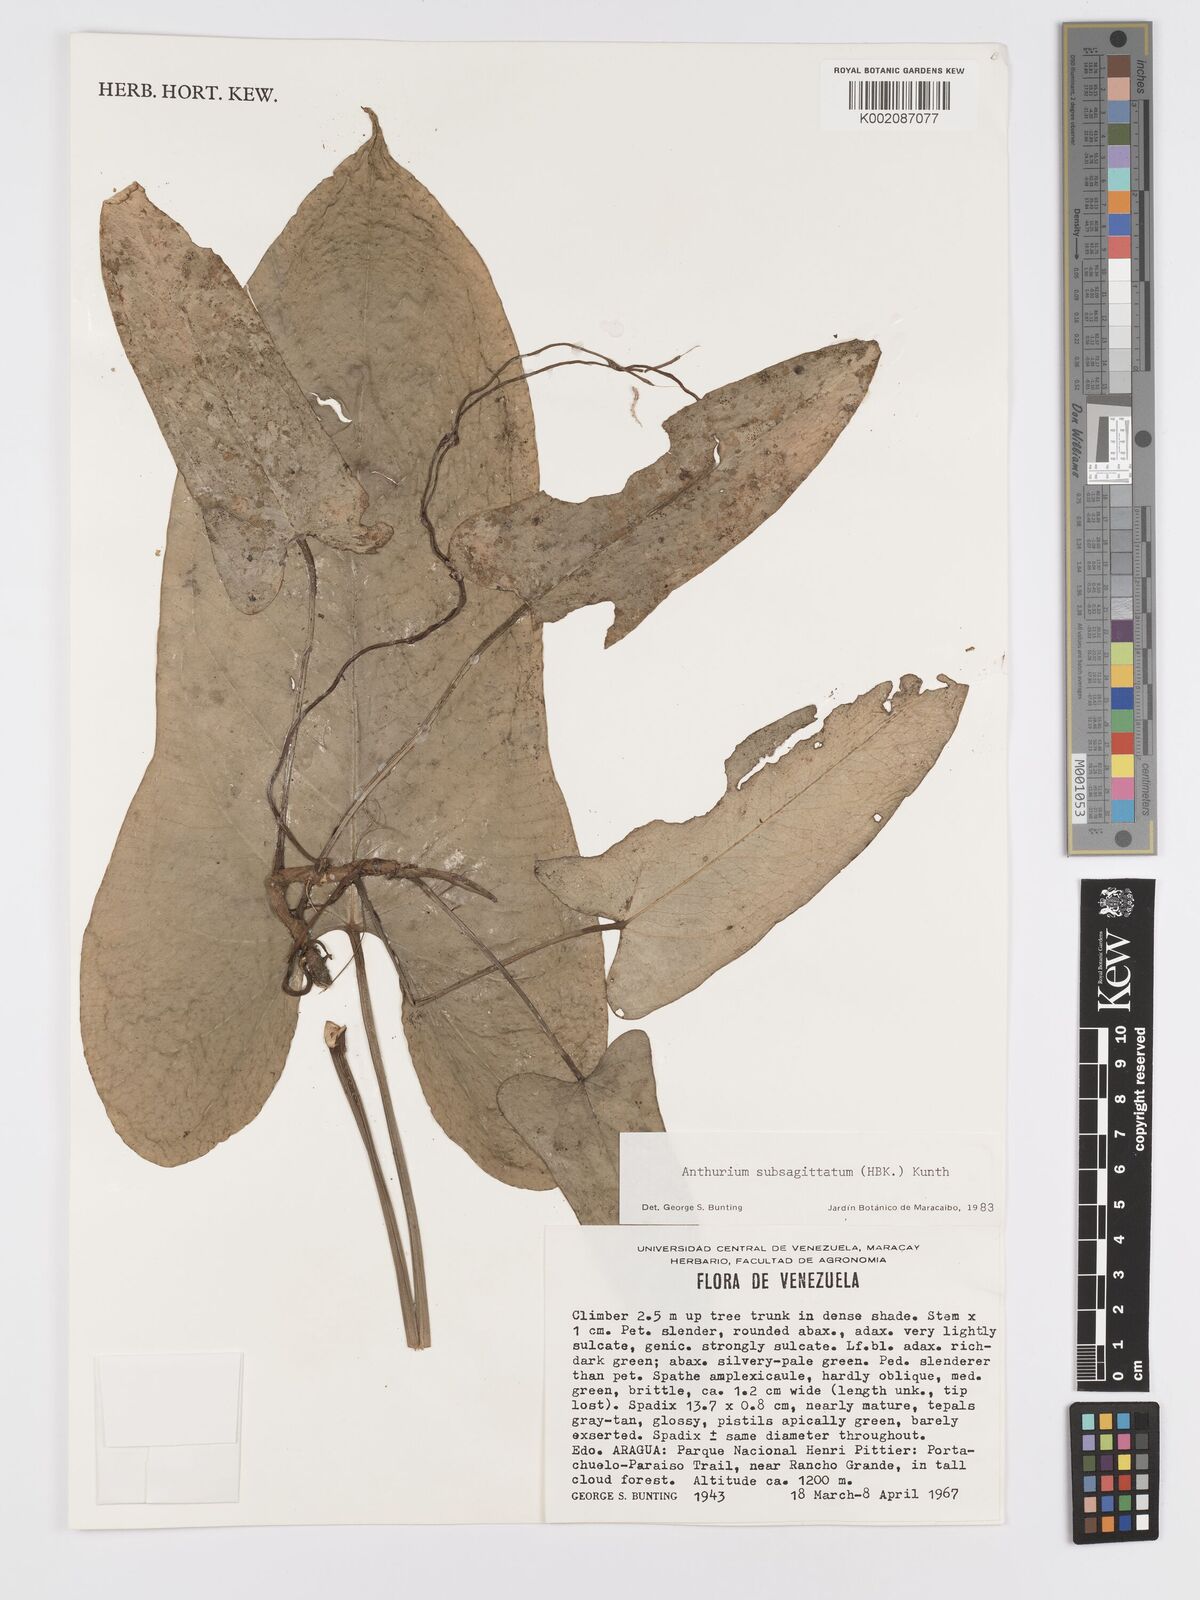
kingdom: Plantae
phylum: Tracheophyta
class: Liliopsida
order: Alismatales
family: Araceae
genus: Anthurium
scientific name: Anthurium
